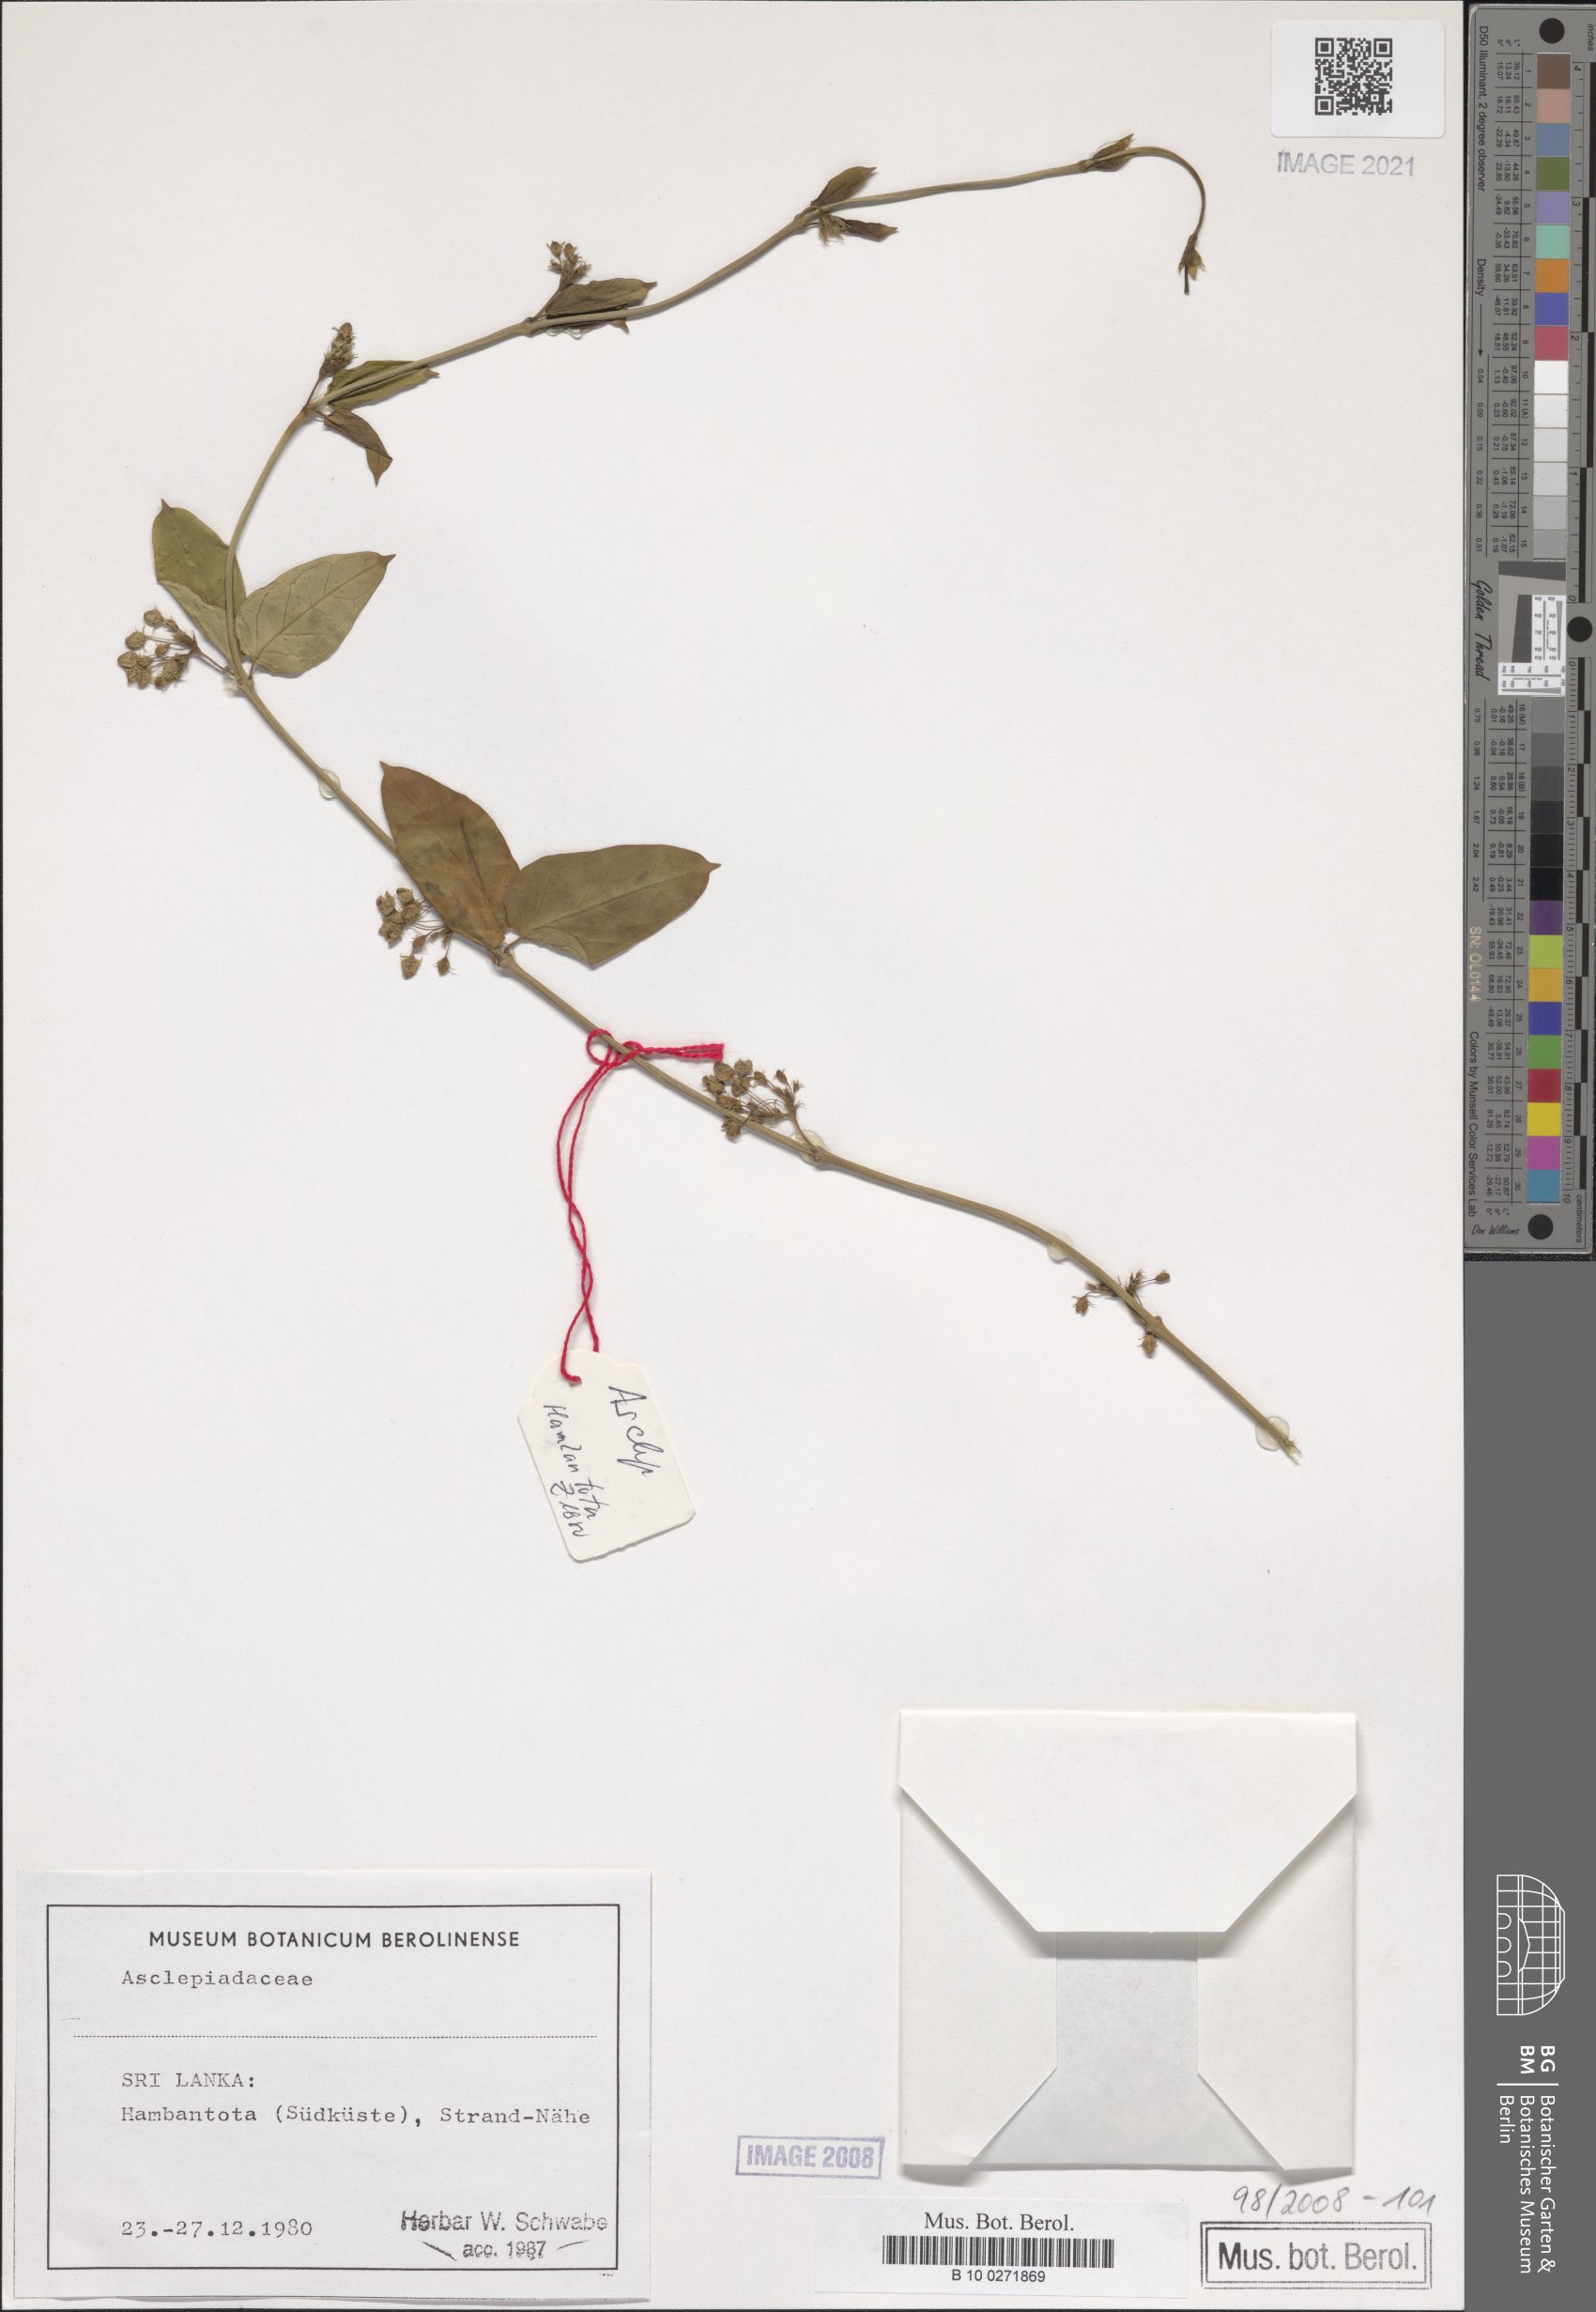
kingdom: Plantae
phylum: Tracheophyta
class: Magnoliopsida
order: Gentianales
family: Asclepiadaceae
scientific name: Asclepiadaceae
